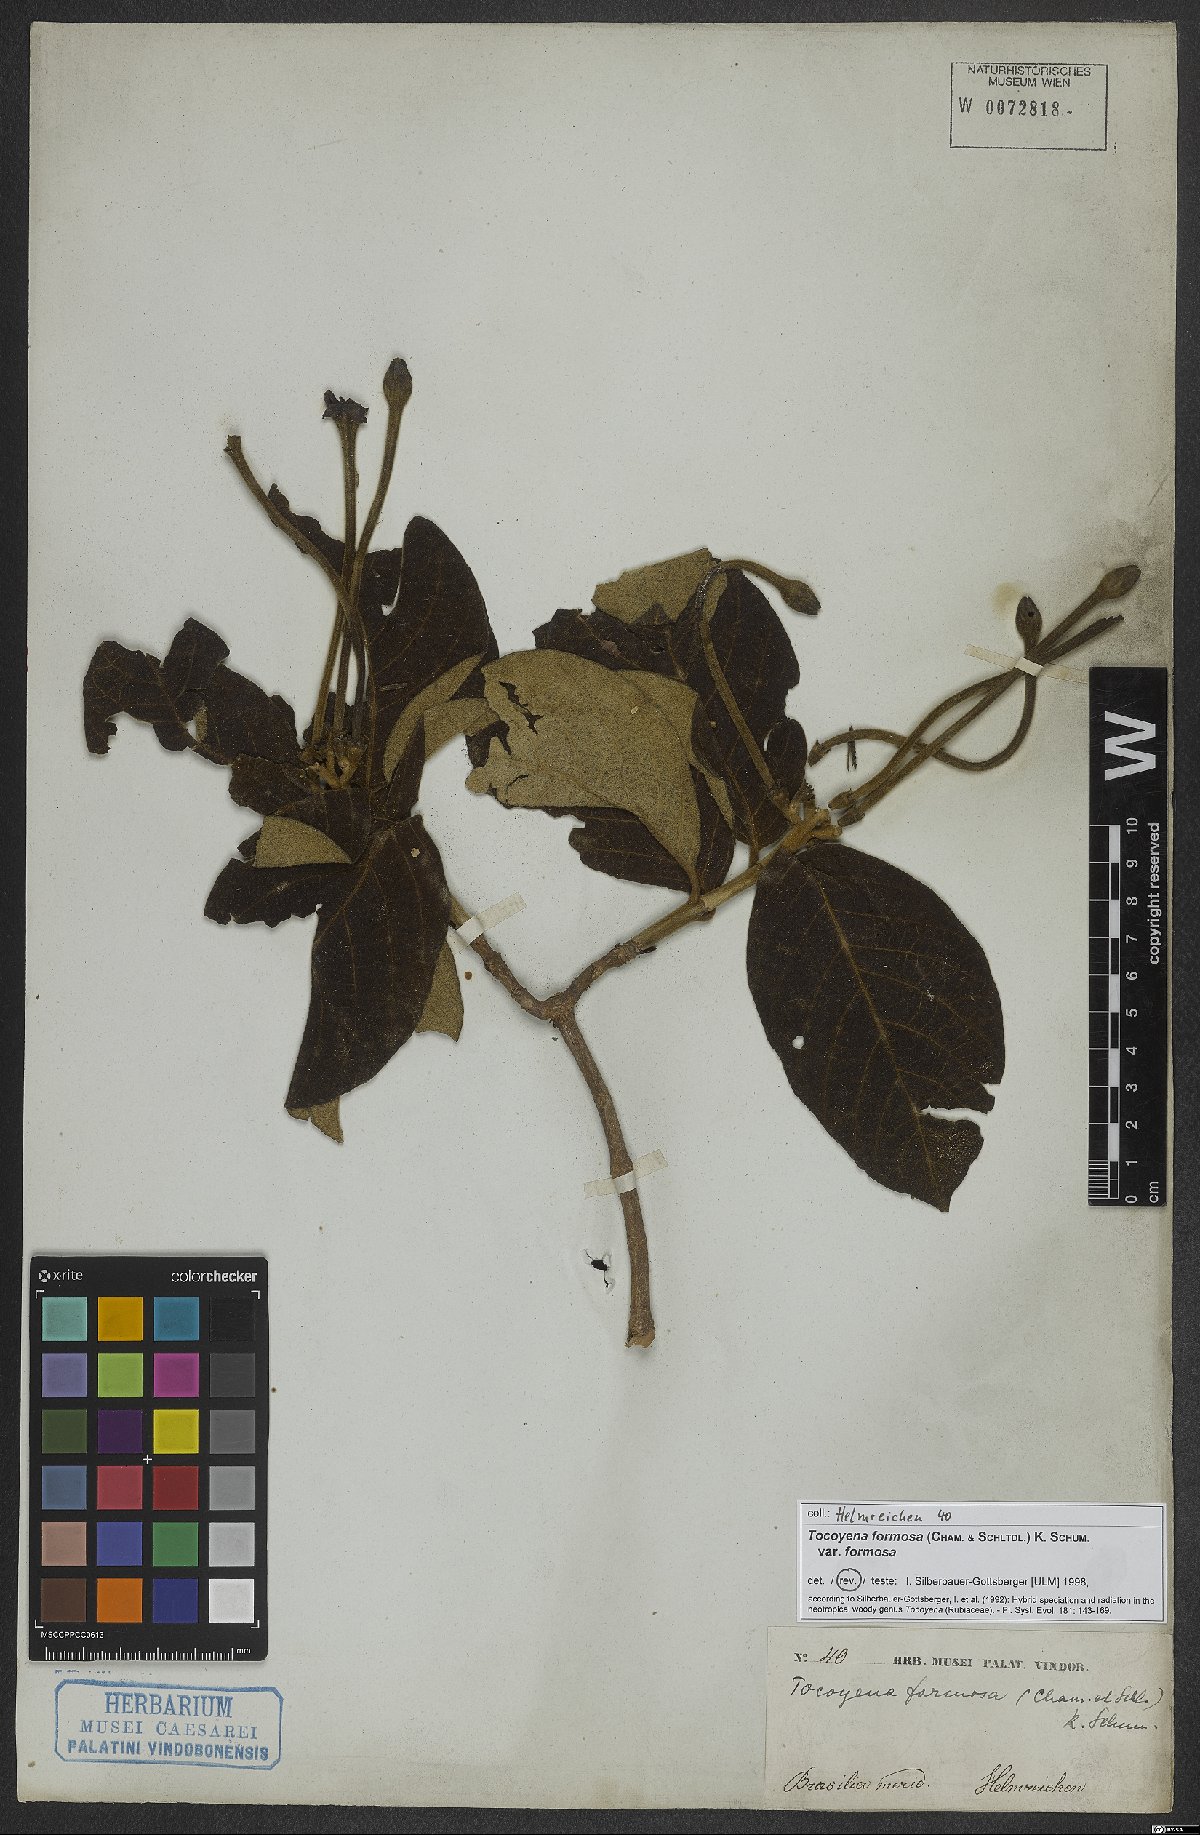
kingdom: Plantae
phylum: Tracheophyta
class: Magnoliopsida
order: Gentianales
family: Rubiaceae
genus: Tocoyena
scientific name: Tocoyena formosa
